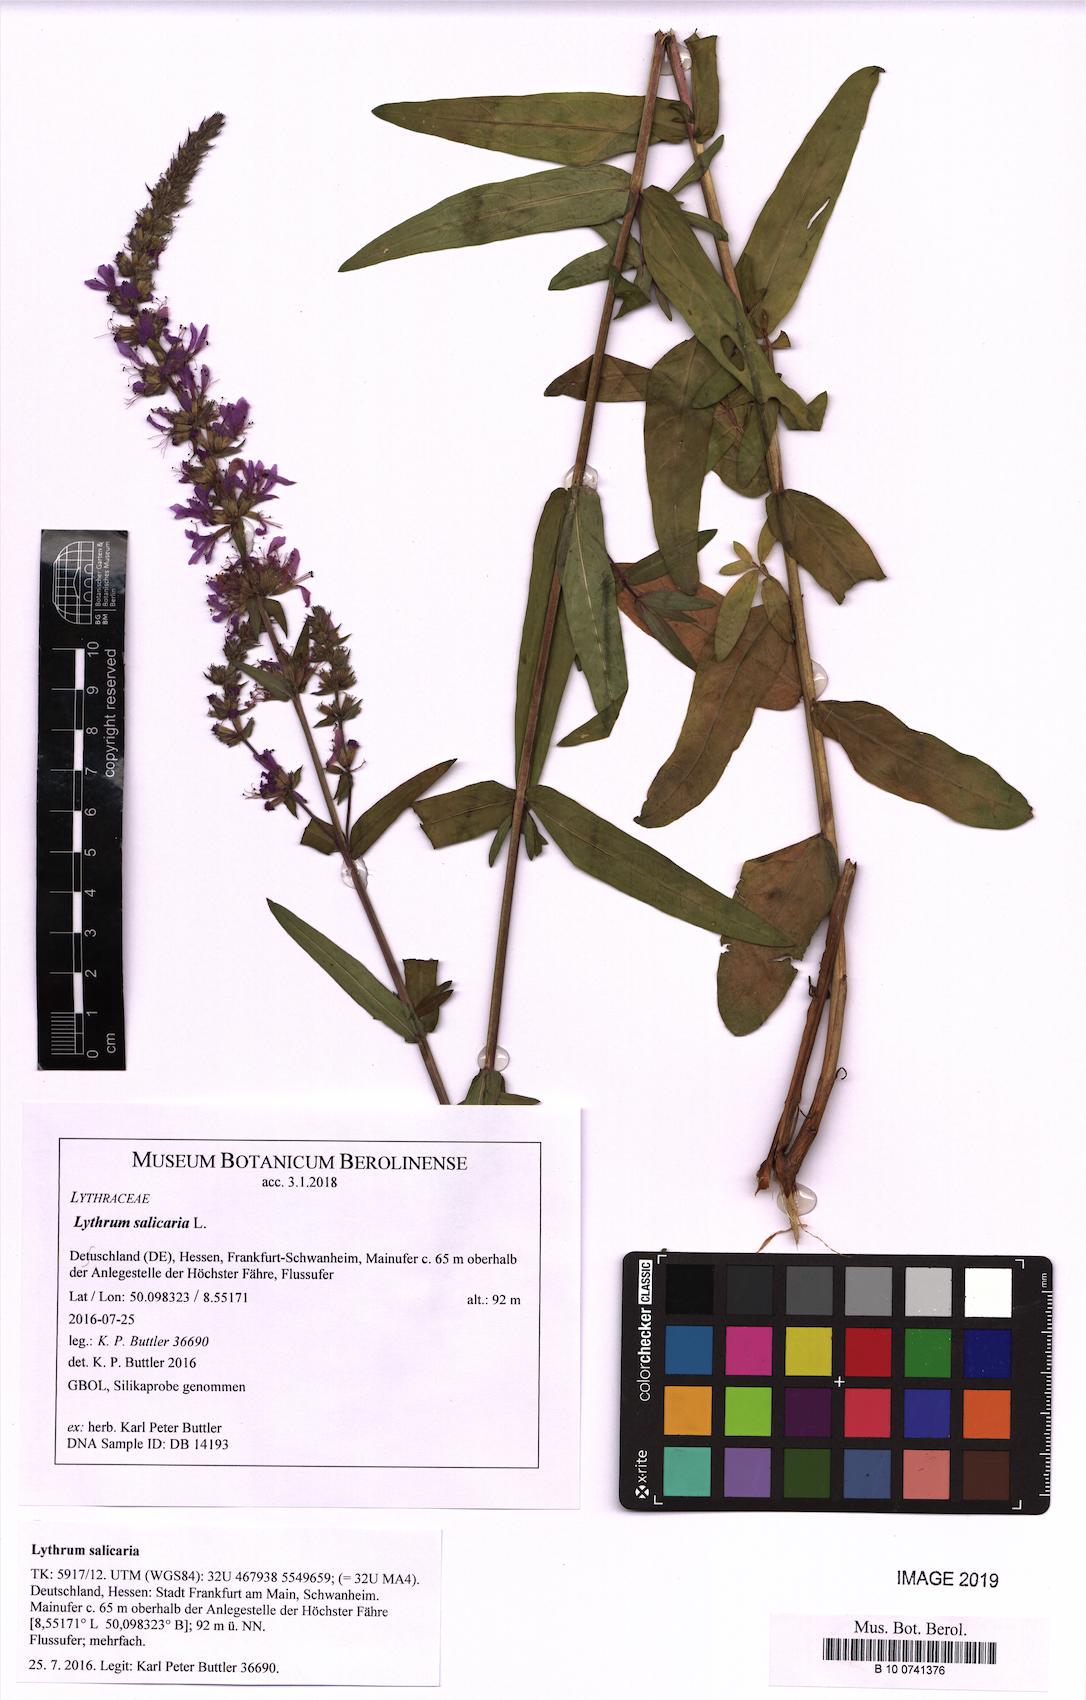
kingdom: Plantae
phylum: Tracheophyta
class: Magnoliopsida
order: Myrtales
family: Lythraceae
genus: Lythrum
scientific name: Lythrum salicaria
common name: Purple loosestrife
